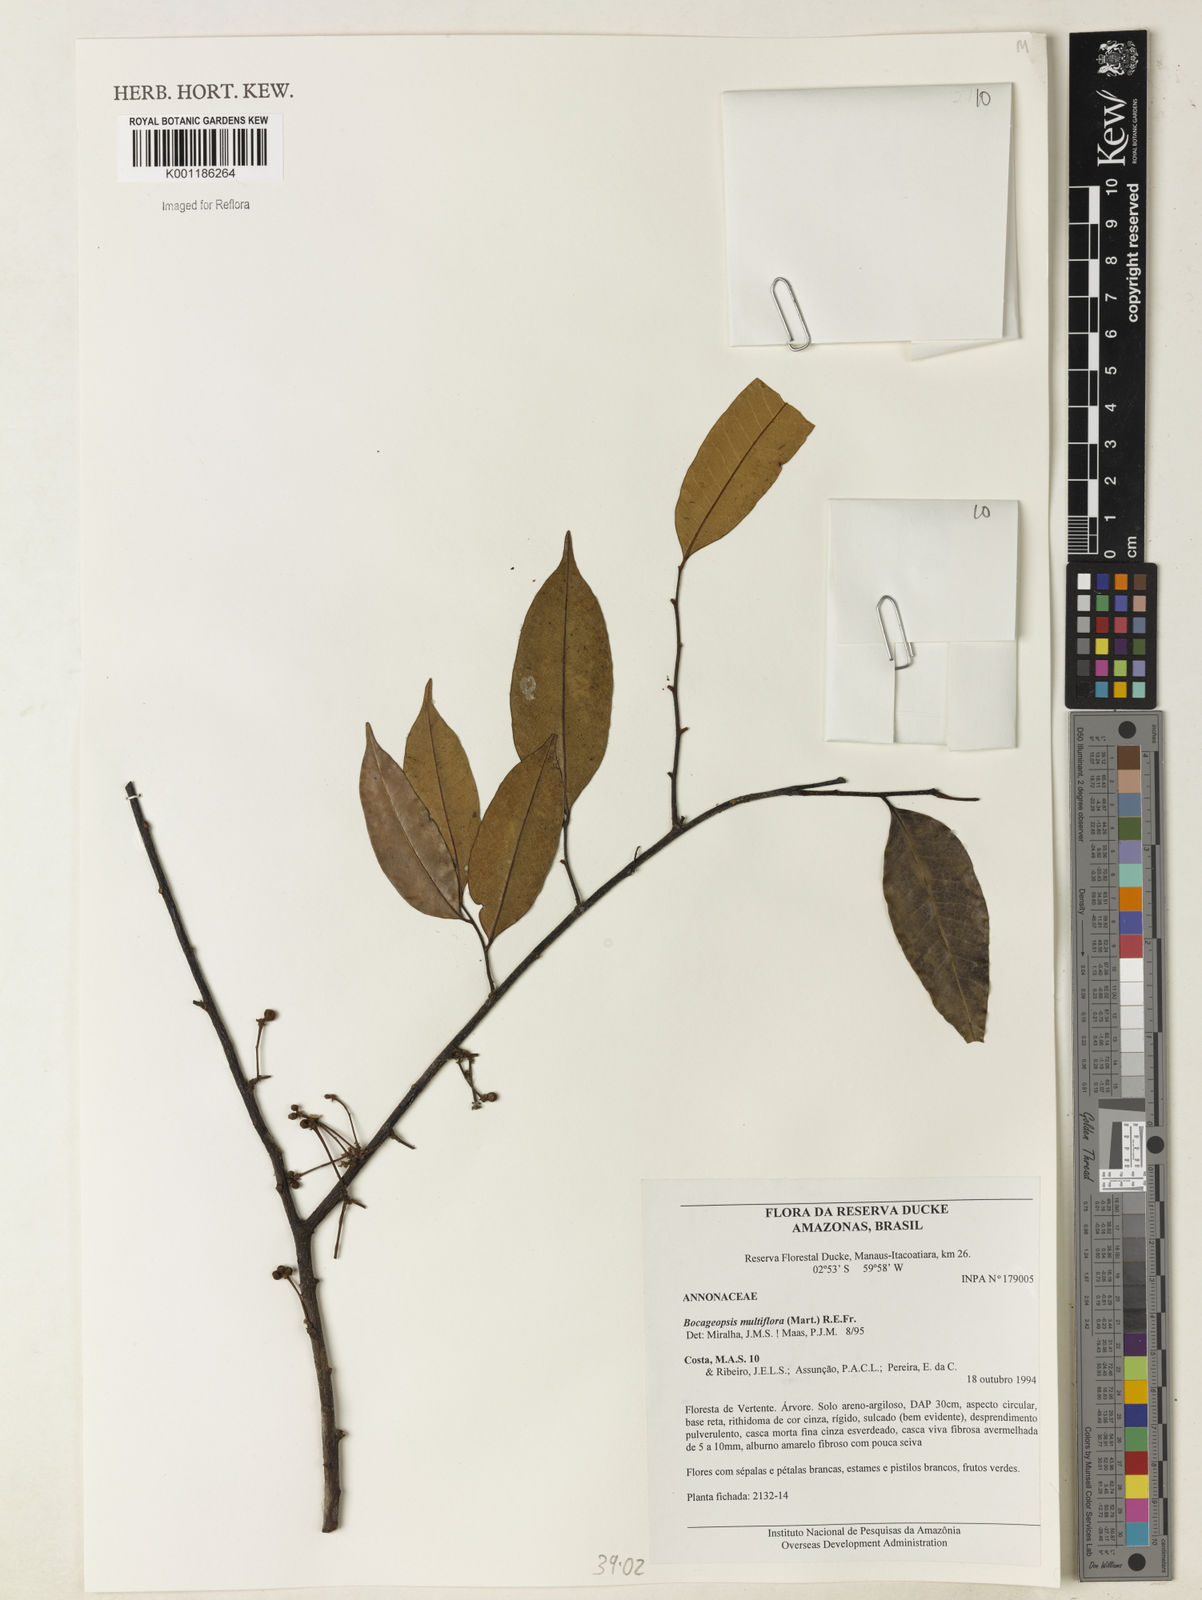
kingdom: Plantae
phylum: Tracheophyta
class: Magnoliopsida
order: Magnoliales
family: Annonaceae
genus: Bocageopsis
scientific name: Bocageopsis multiflora
